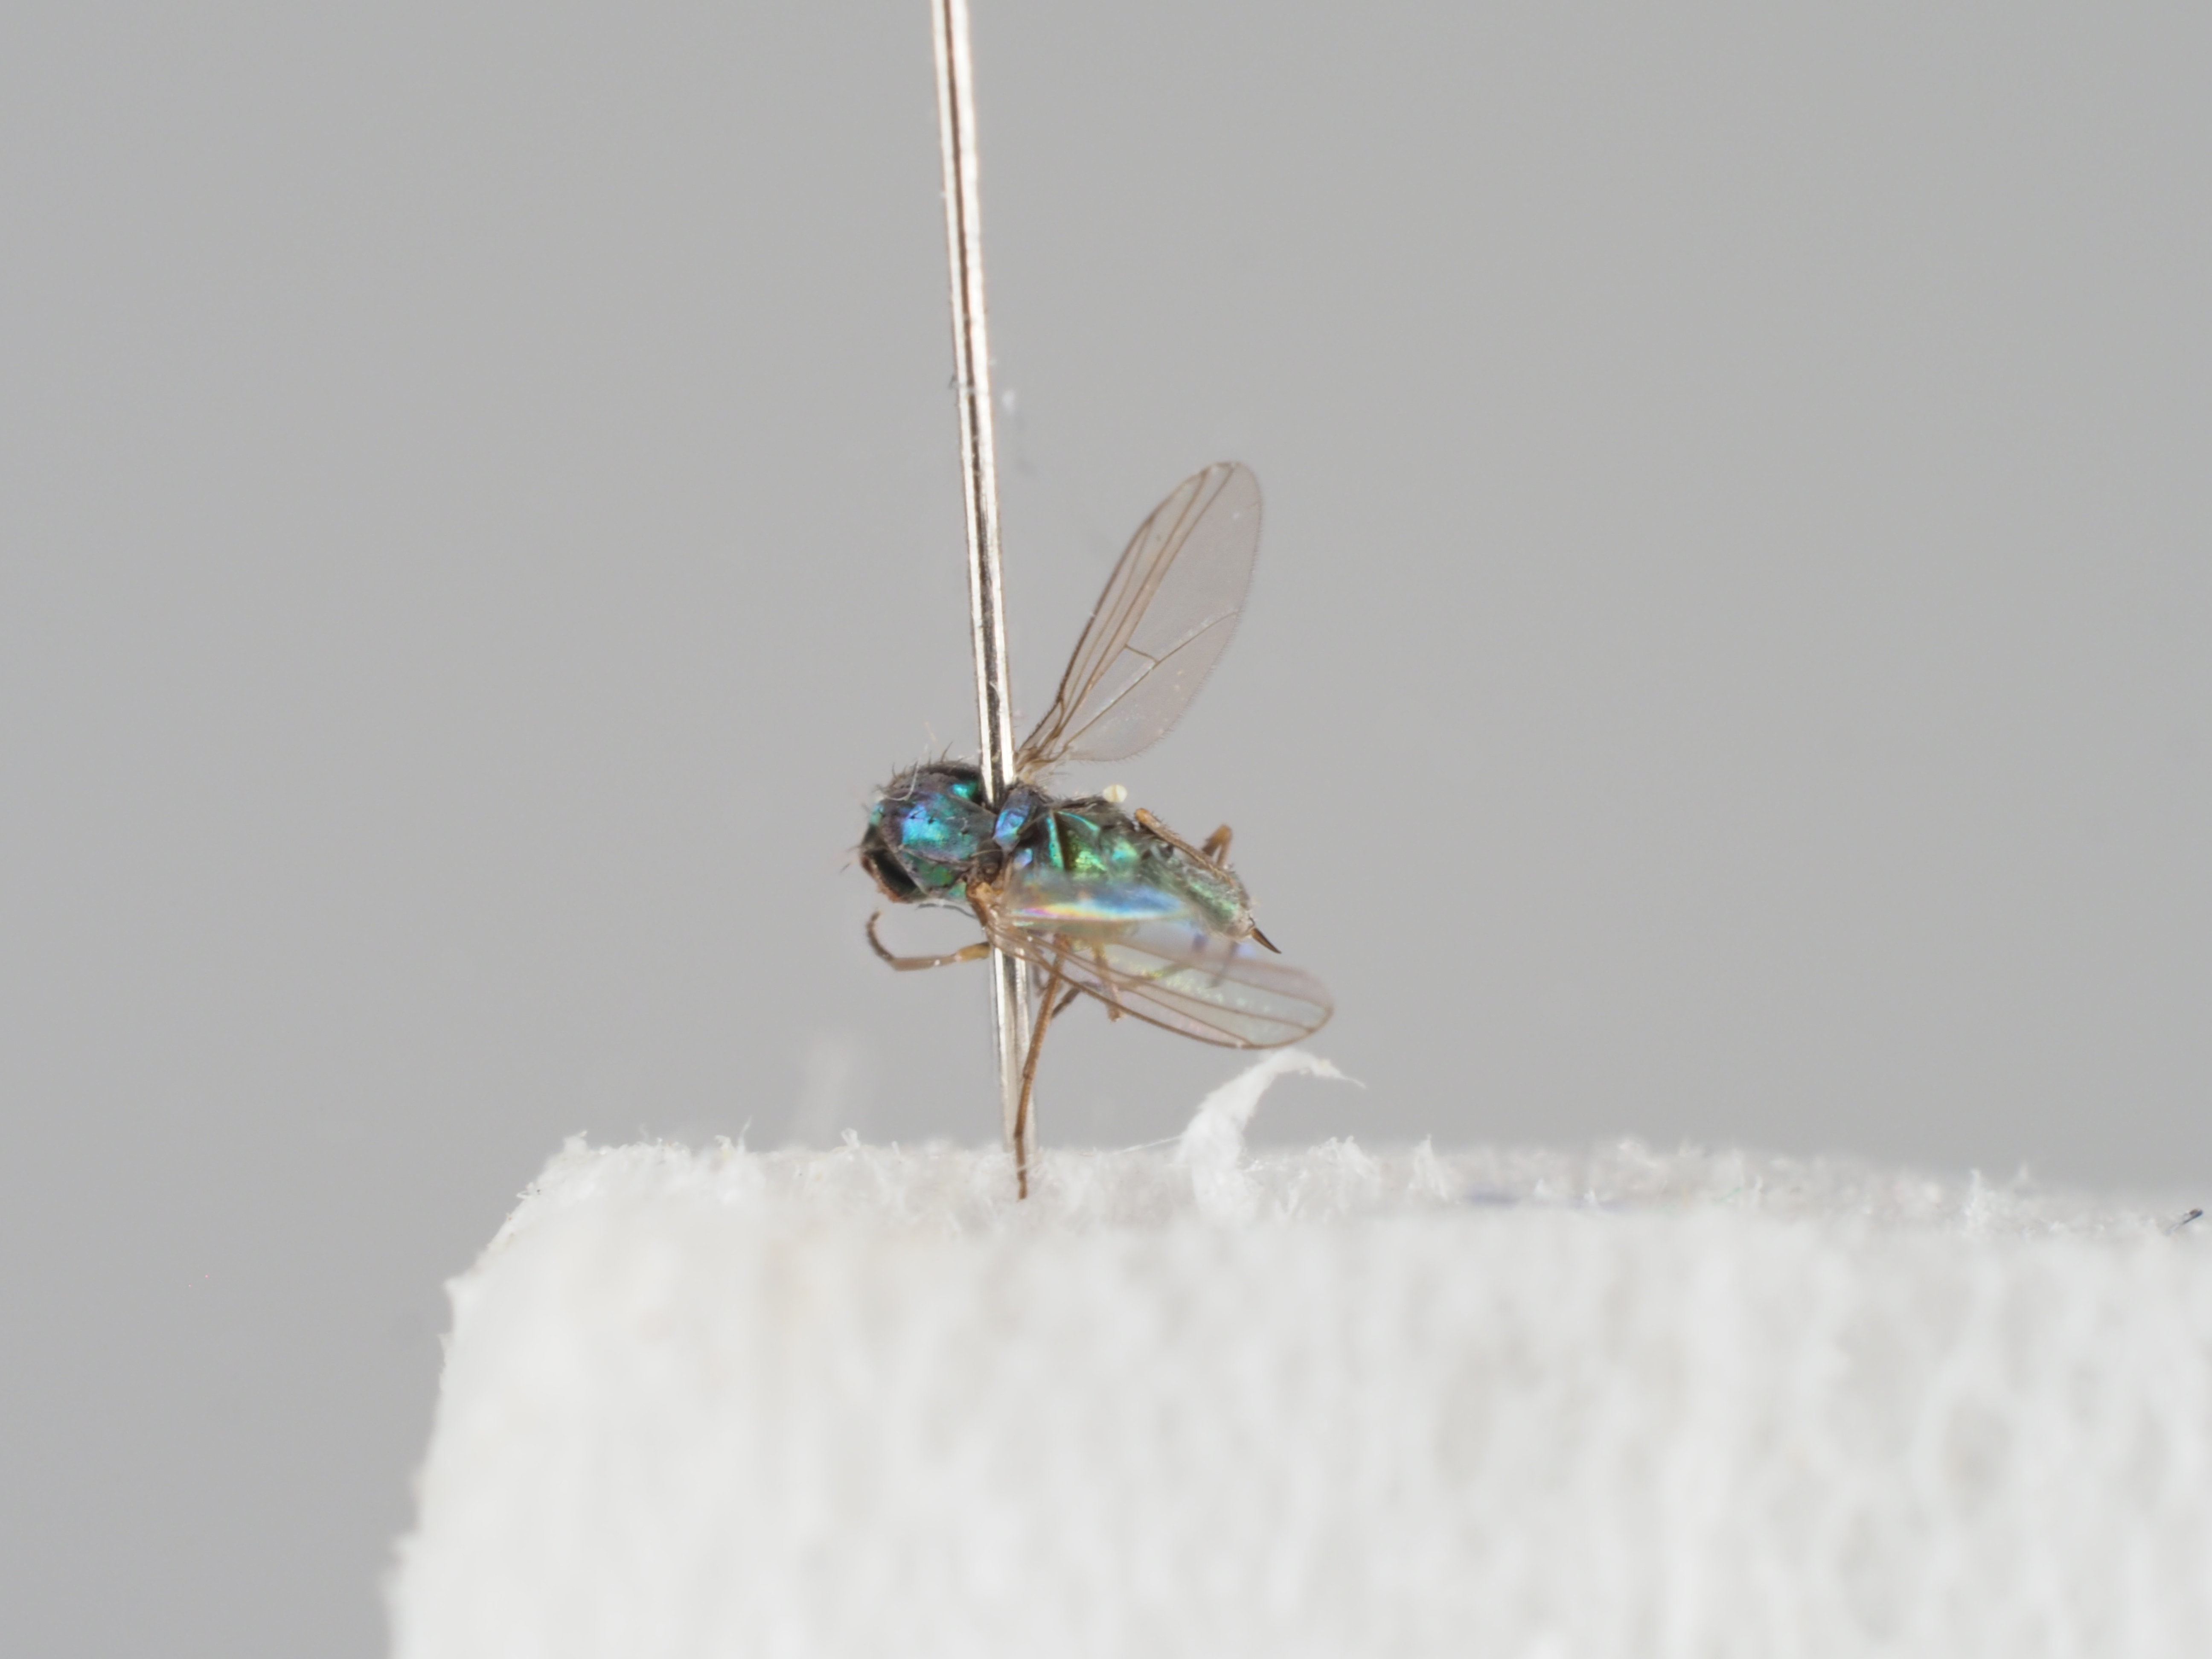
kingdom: Animalia
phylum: Arthropoda
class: Insecta
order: Diptera
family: Dolichopodidae
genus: Thrypticus
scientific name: Thrypticus tarsalis
